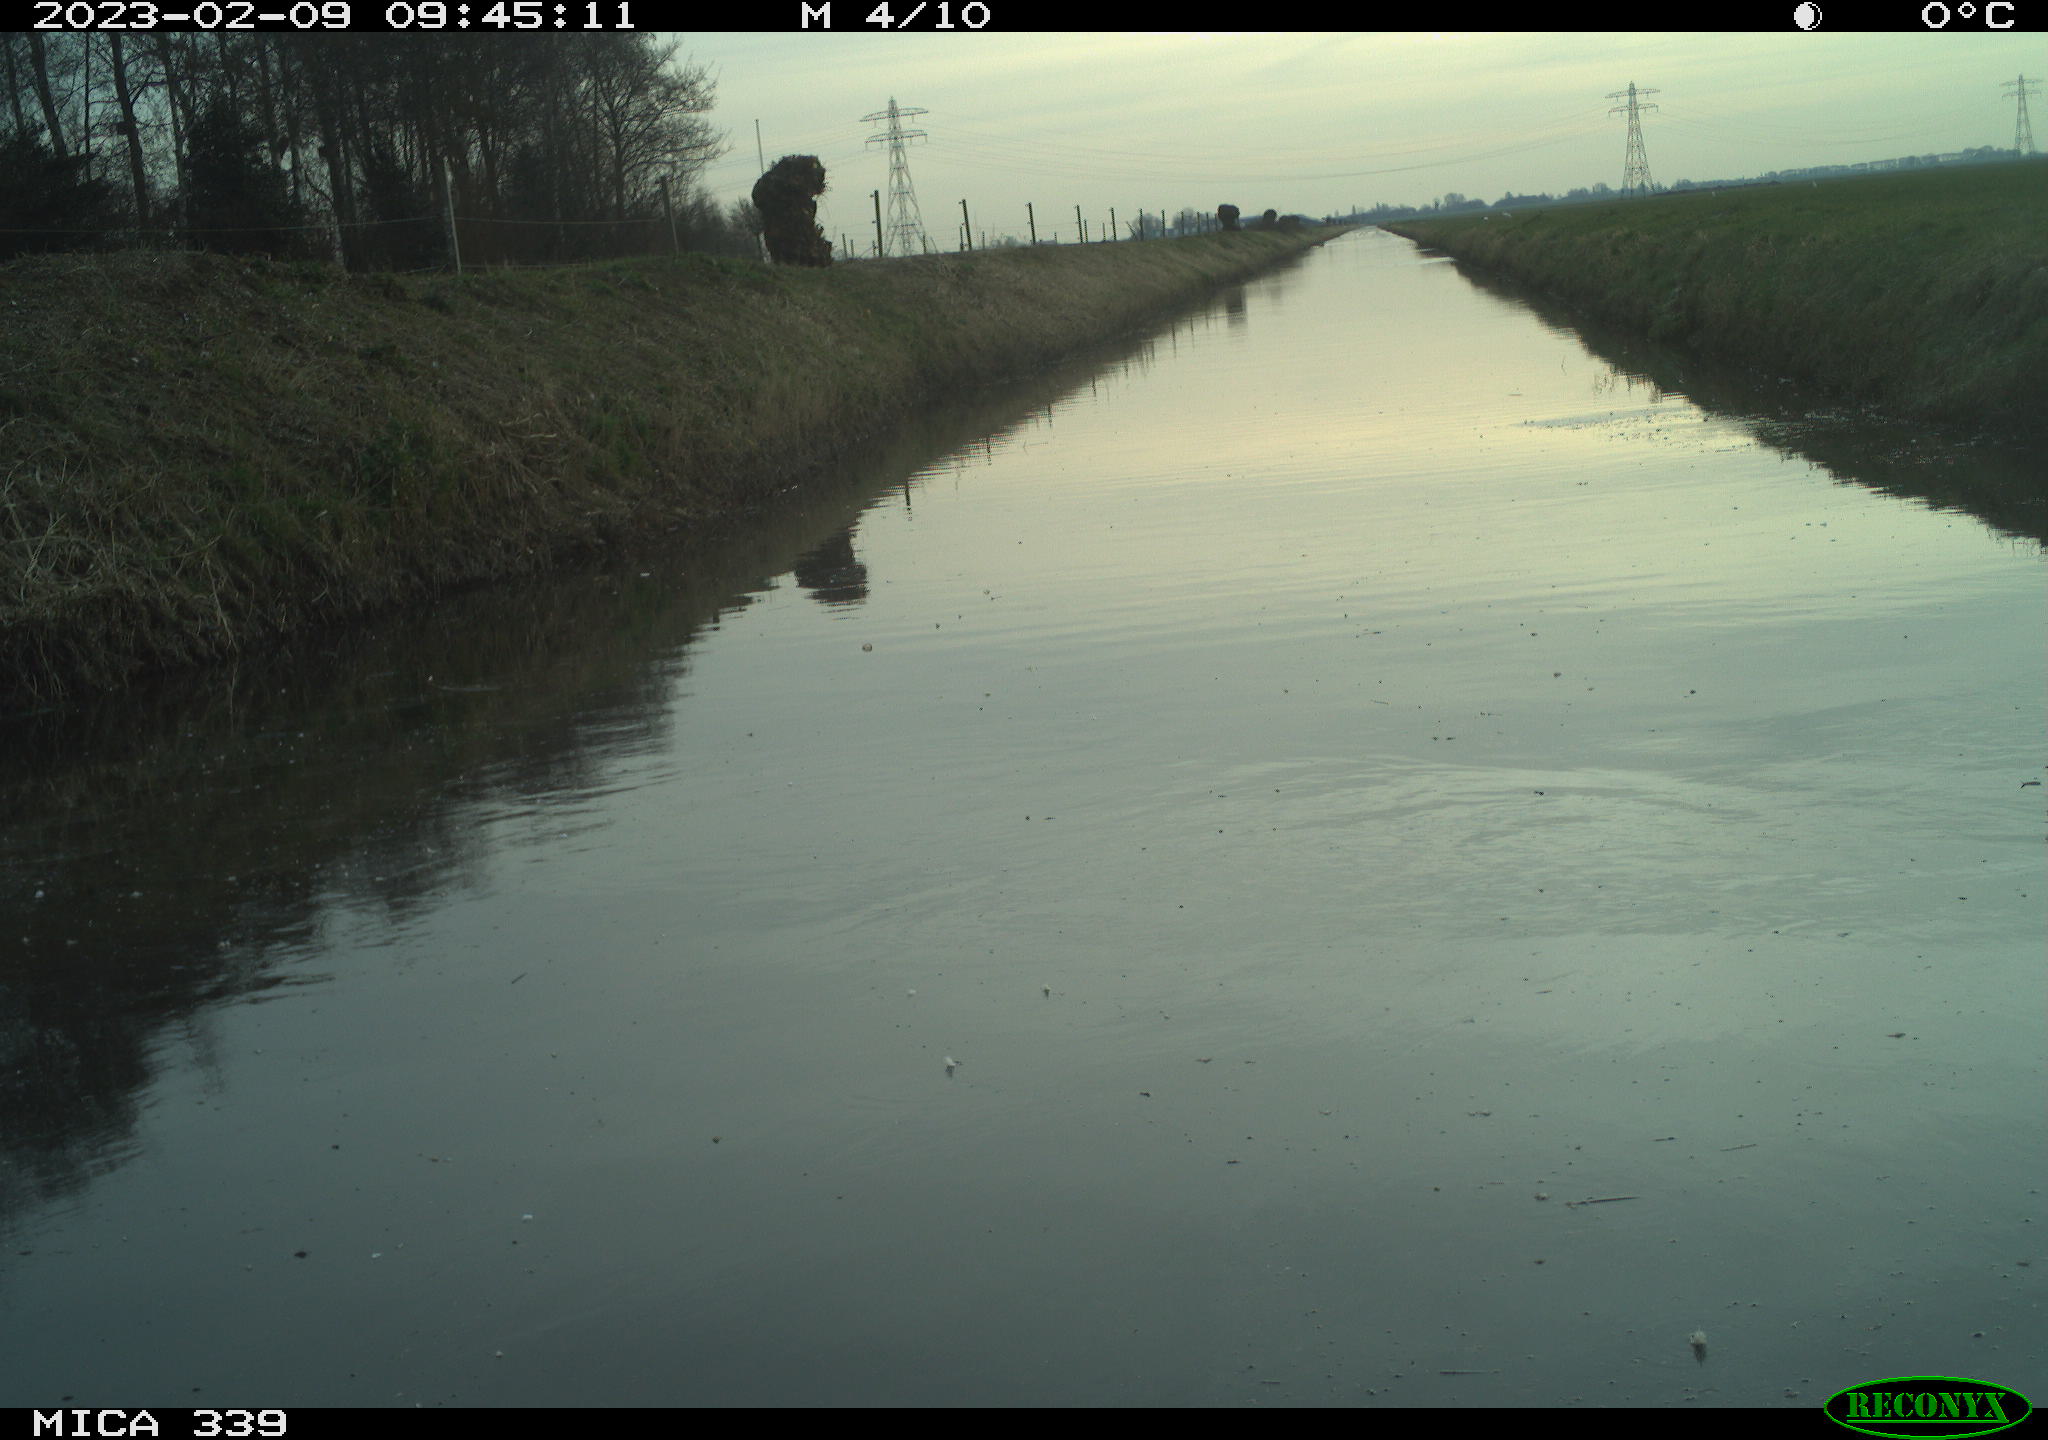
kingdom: Animalia
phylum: Chordata
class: Aves
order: Pelecaniformes
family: Ardeidae
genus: Ardea
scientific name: Ardea cinerea
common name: Grey heron
